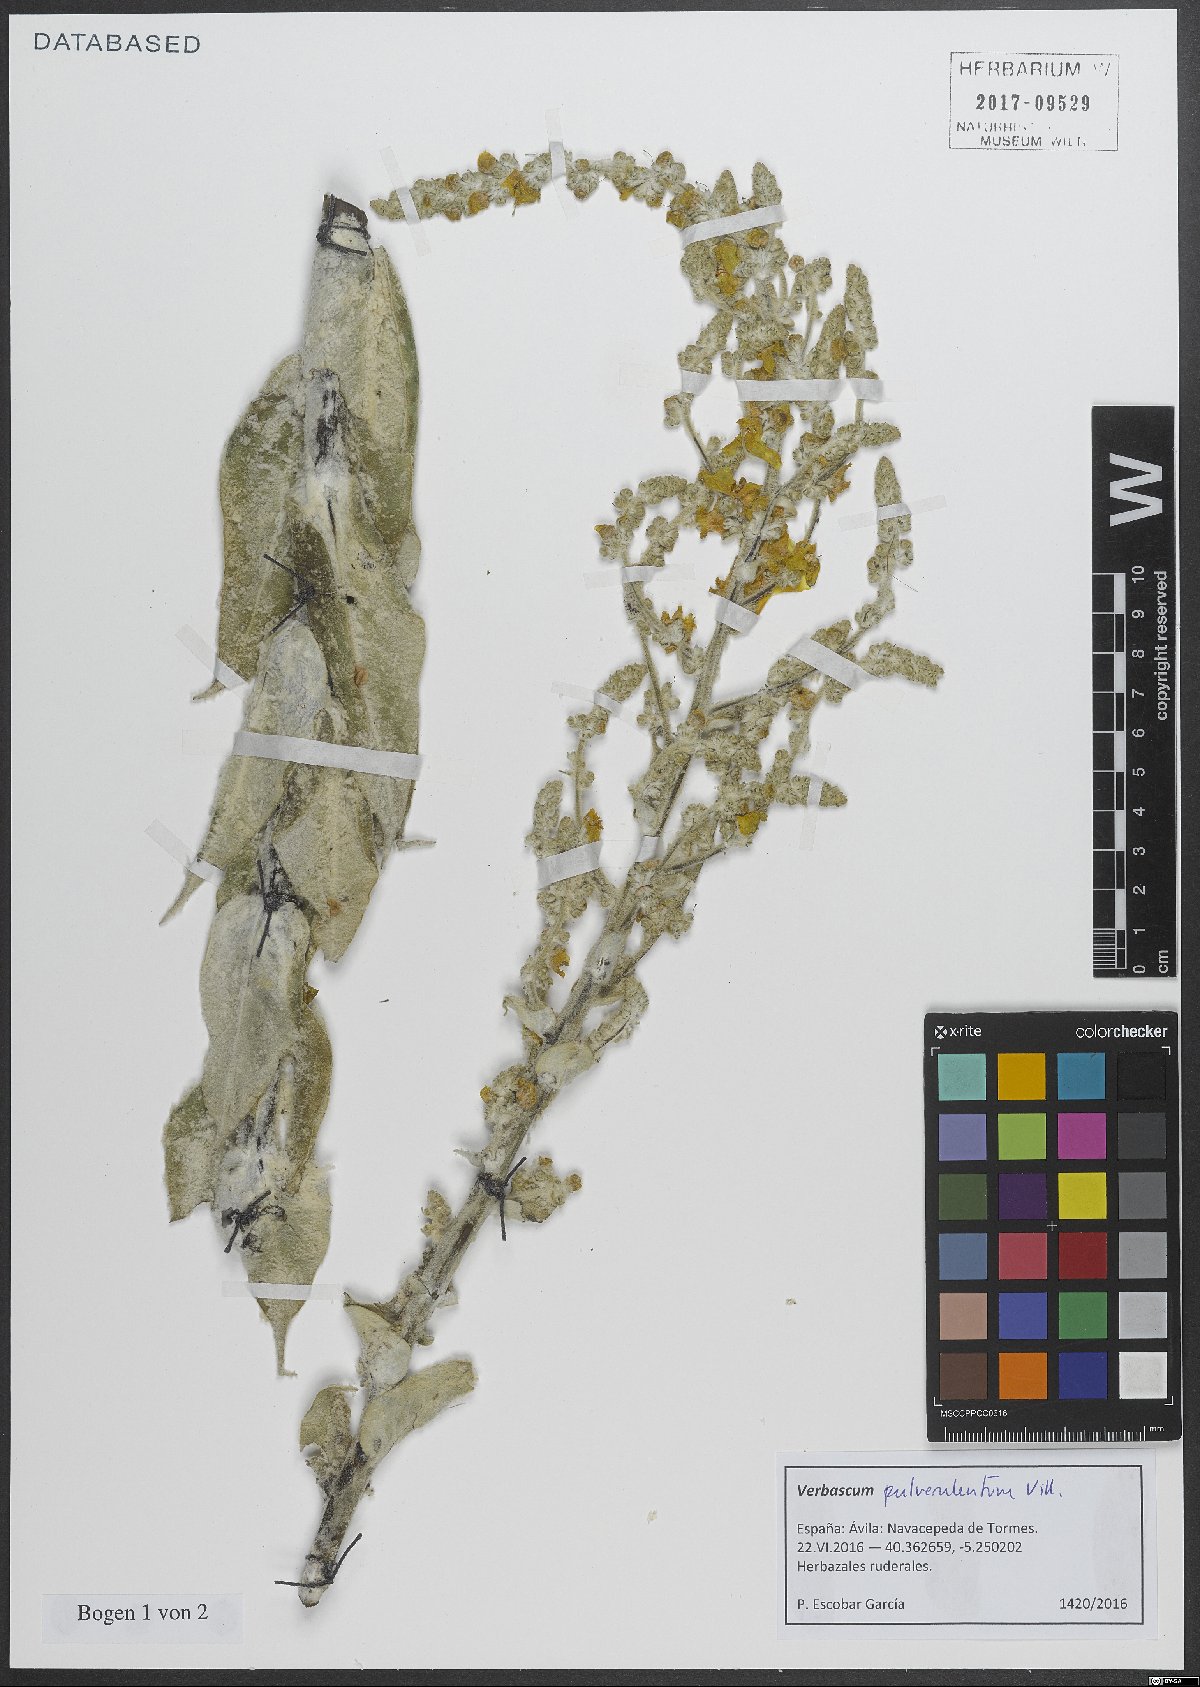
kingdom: Plantae
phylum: Tracheophyta
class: Magnoliopsida
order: Lamiales
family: Scrophulariaceae
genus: Verbascum
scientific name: Verbascum pulverulentum
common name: Broad-leaf mullein
